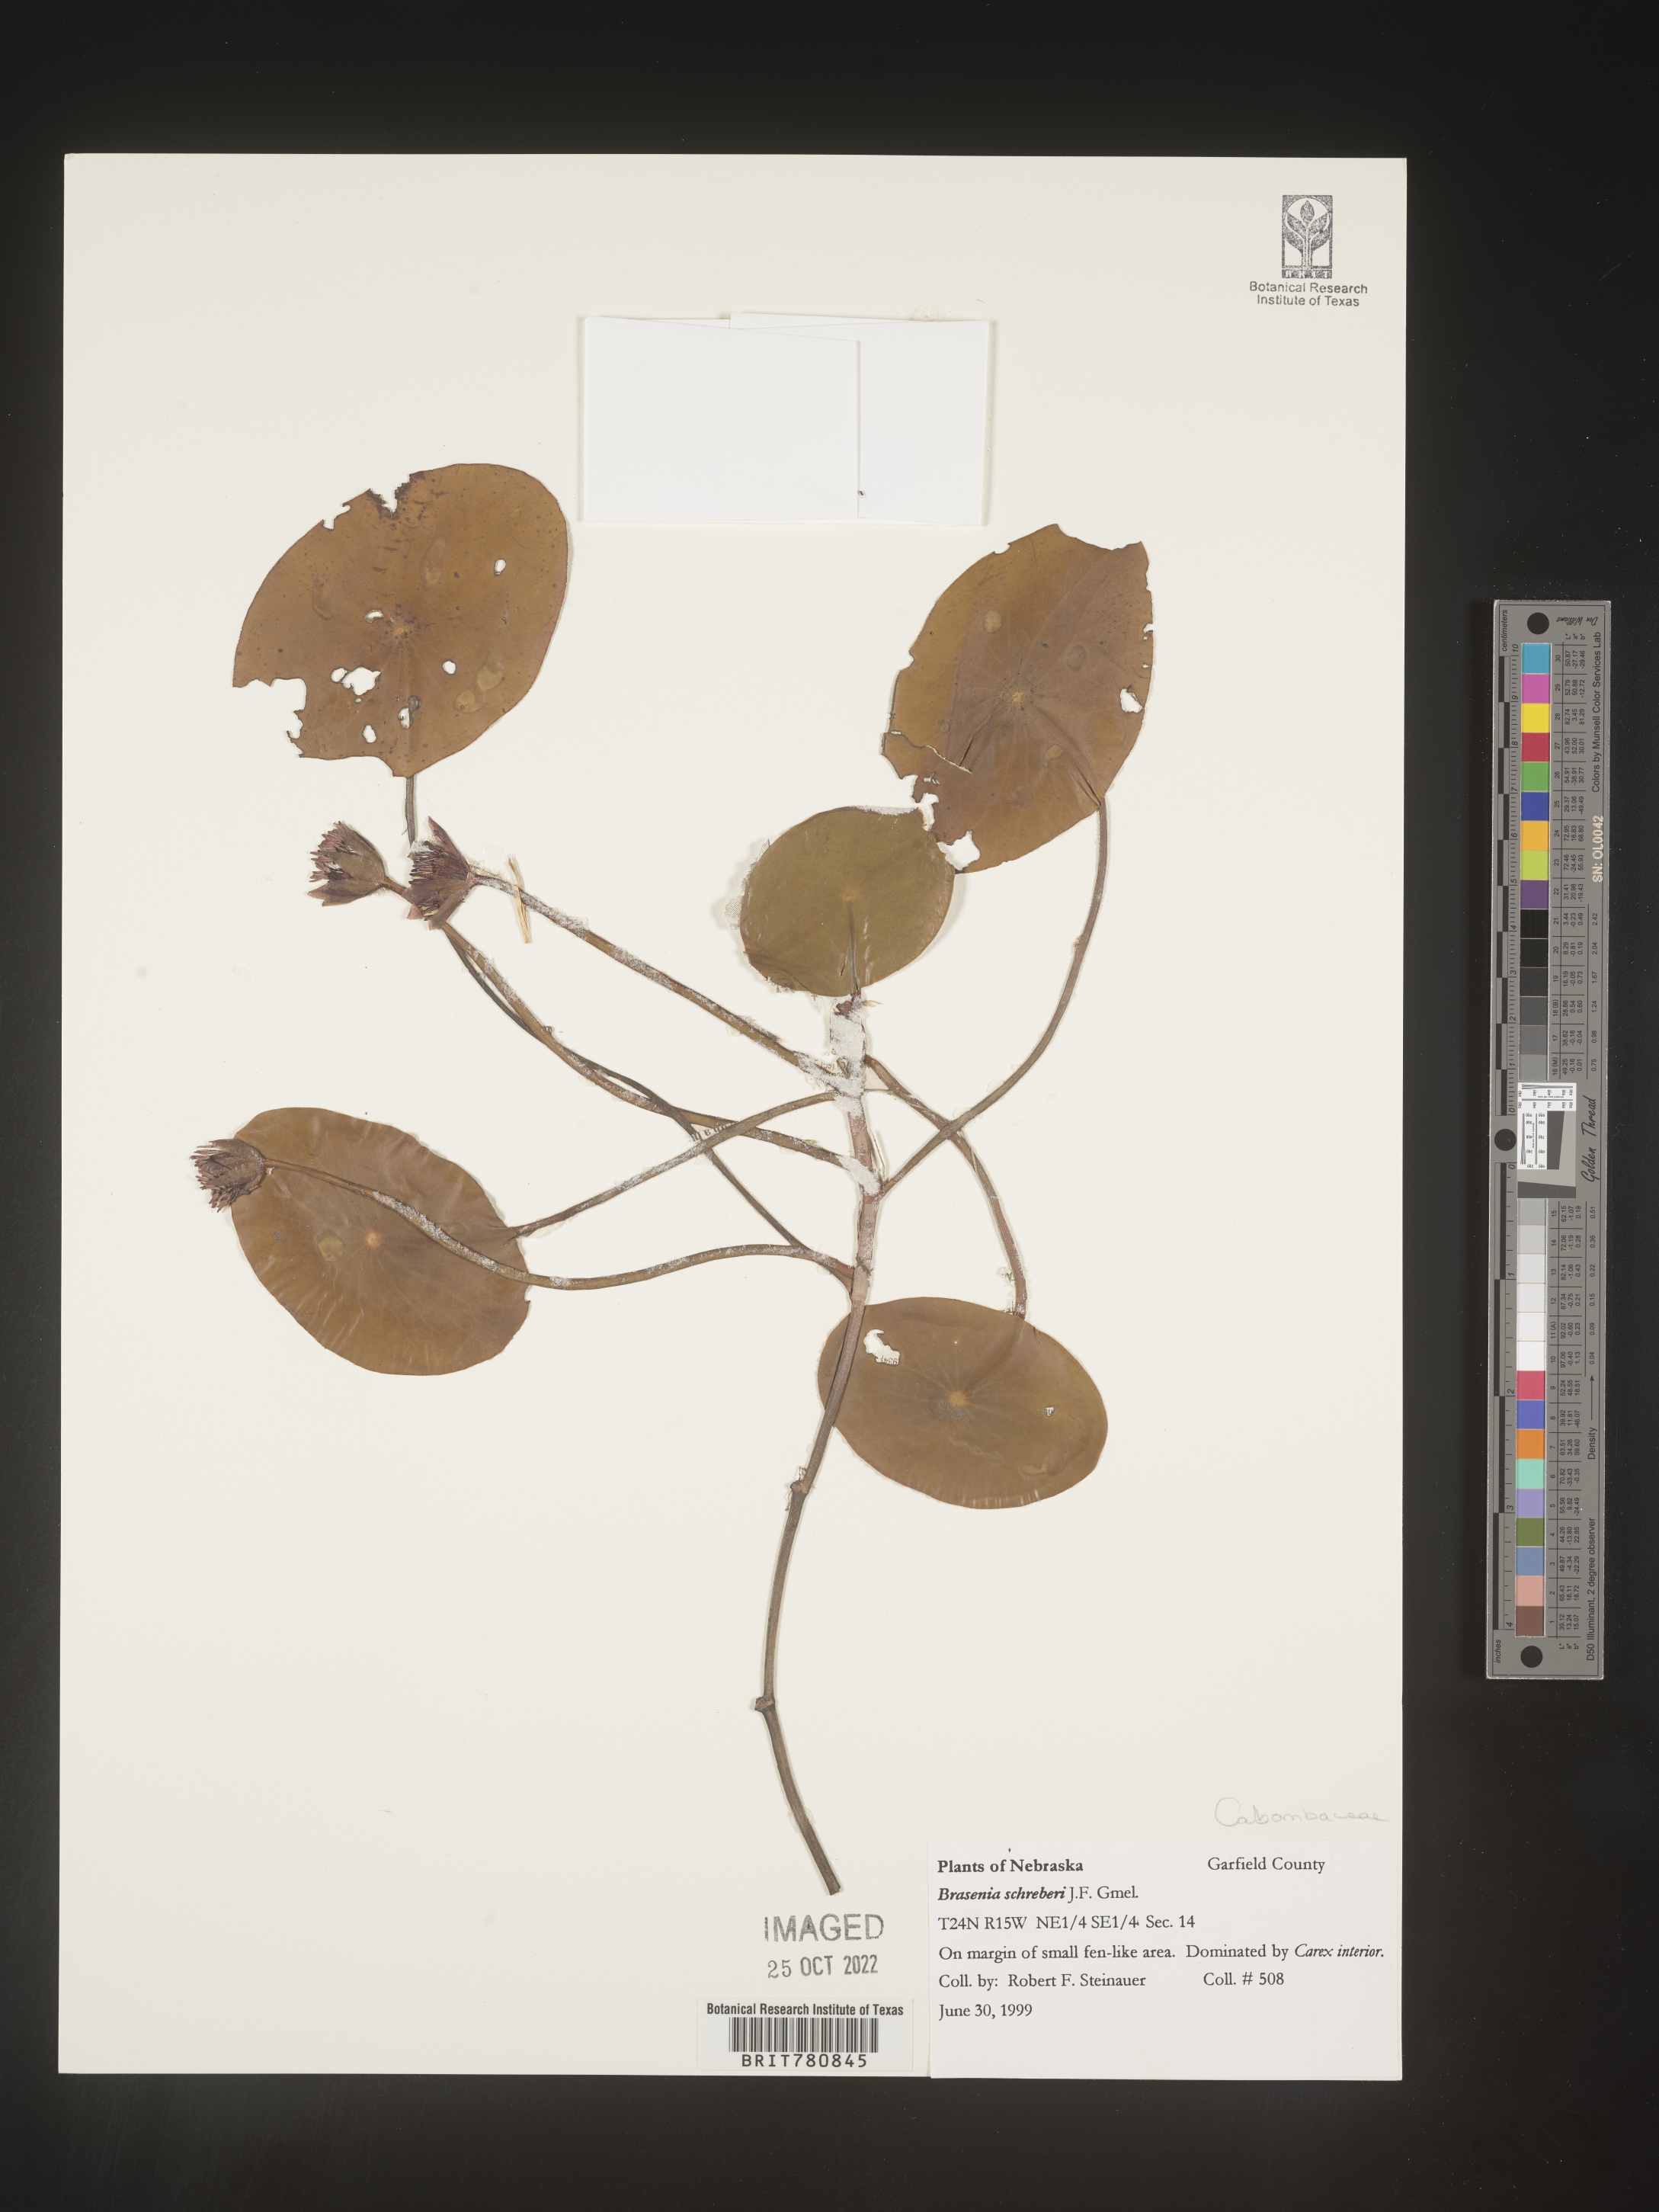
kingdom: Plantae
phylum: Tracheophyta
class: Magnoliopsida
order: Nymphaeales
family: Cabombaceae
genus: Brasenia
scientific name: Brasenia schreberi
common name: Water-shield
